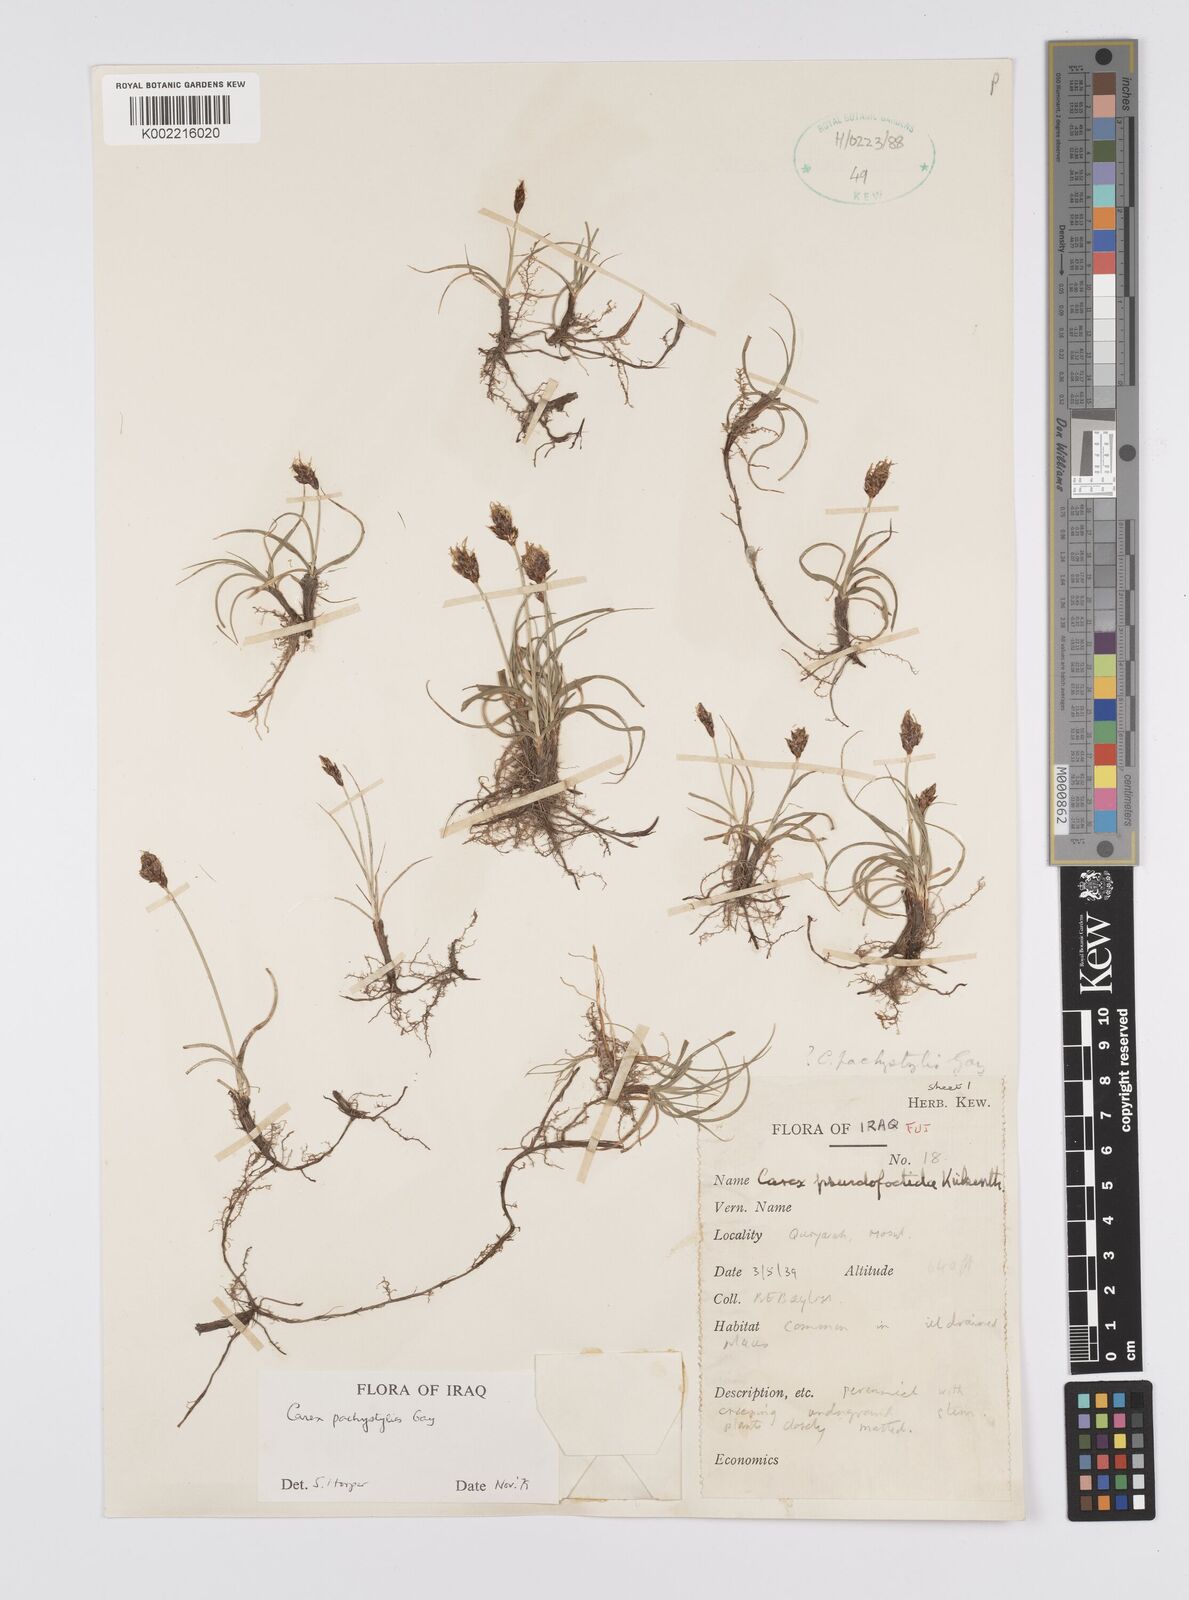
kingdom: Plantae
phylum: Tracheophyta
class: Liliopsida
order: Poales
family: Cyperaceae
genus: Carex
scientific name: Carex pachystylis
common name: Thick-stem sedge
